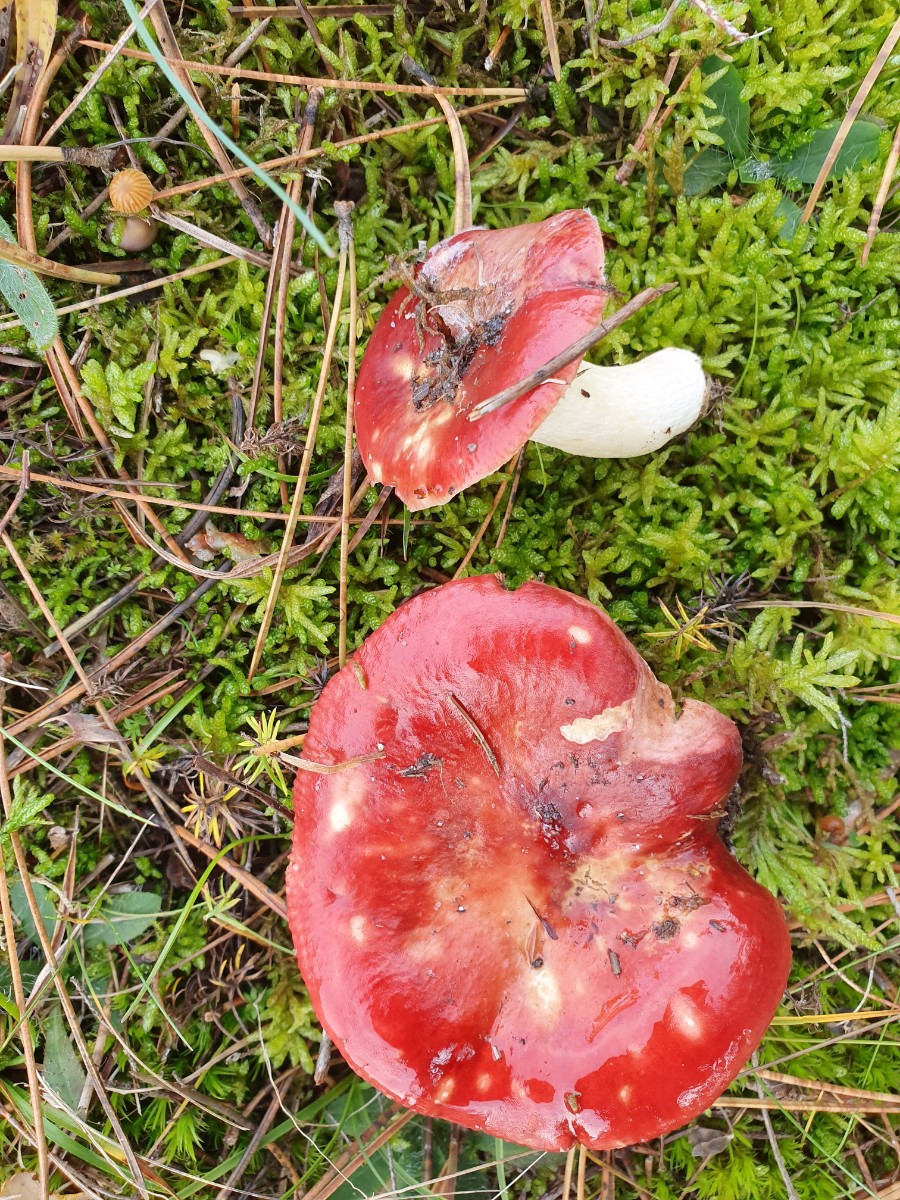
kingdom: Fungi
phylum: Basidiomycota
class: Agaricomycetes
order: Russulales
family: Russulaceae
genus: Russula
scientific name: Russula emetica
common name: stor gift-skørhat
